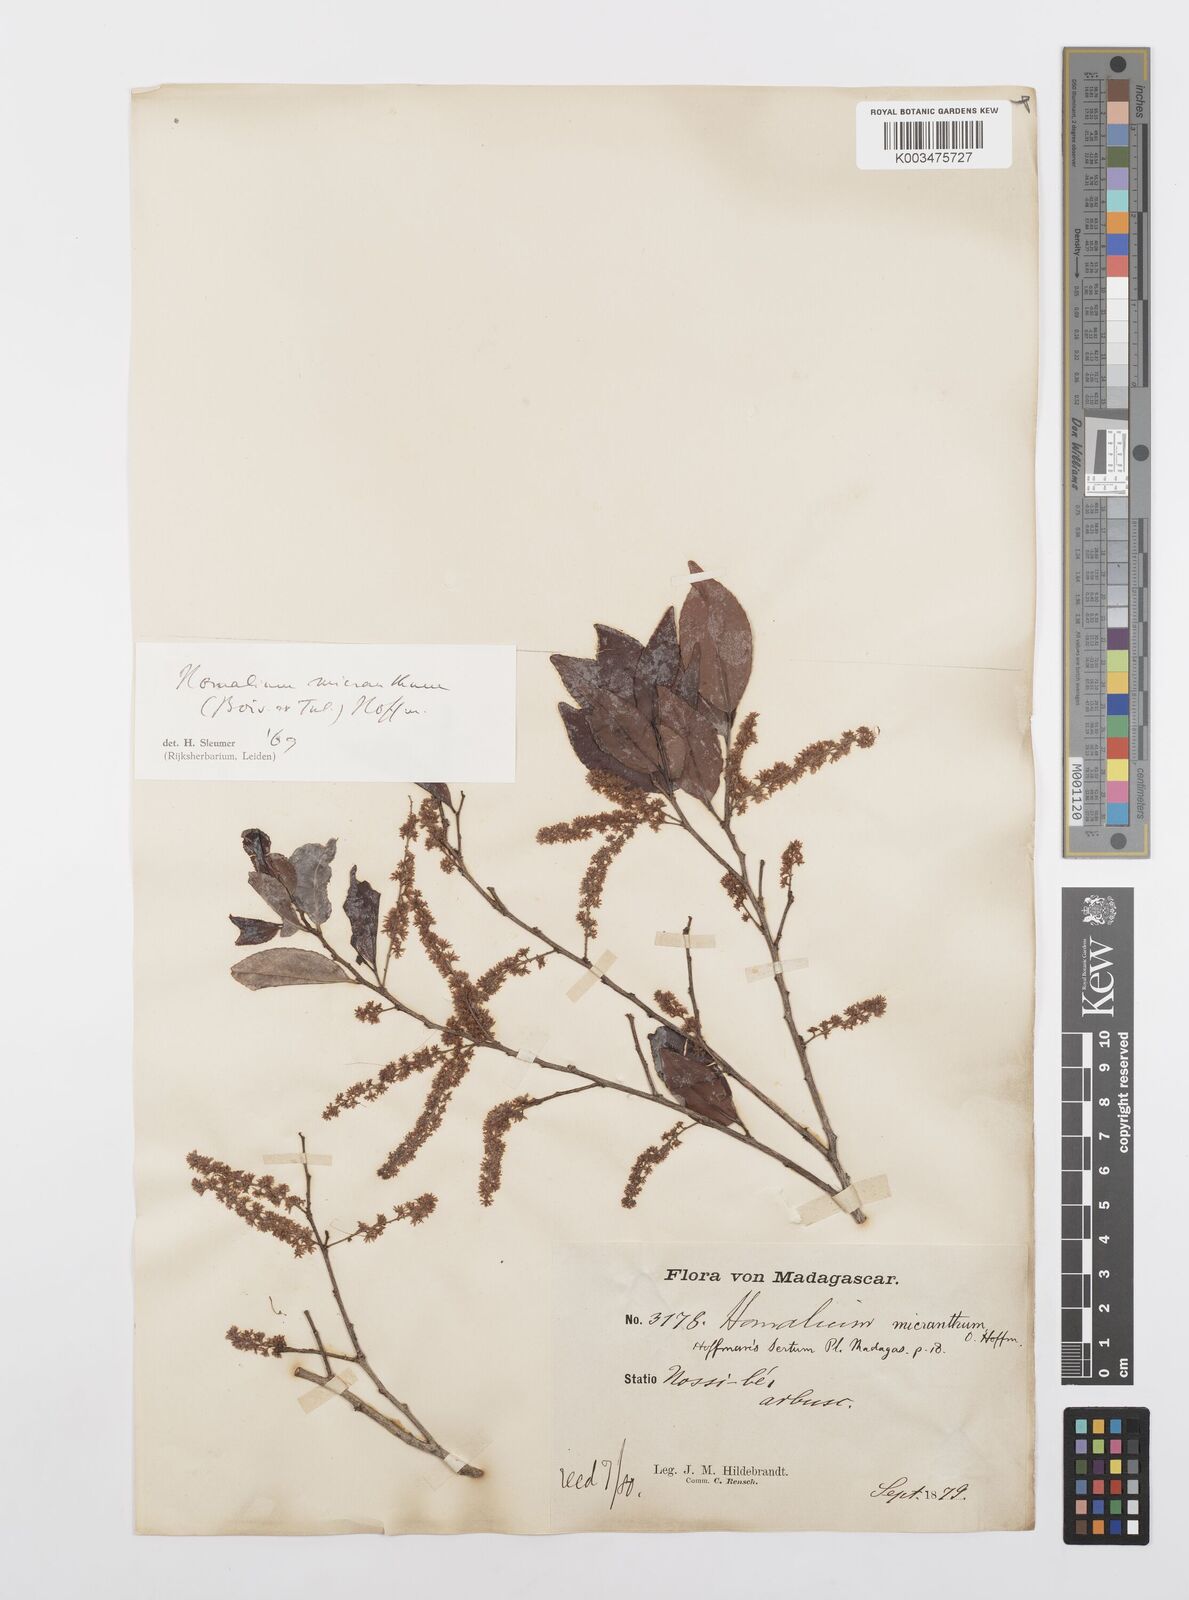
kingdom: Plantae
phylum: Tracheophyta
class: Magnoliopsida
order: Malpighiales
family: Salicaceae
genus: Homalium
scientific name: Homalium micranthum
